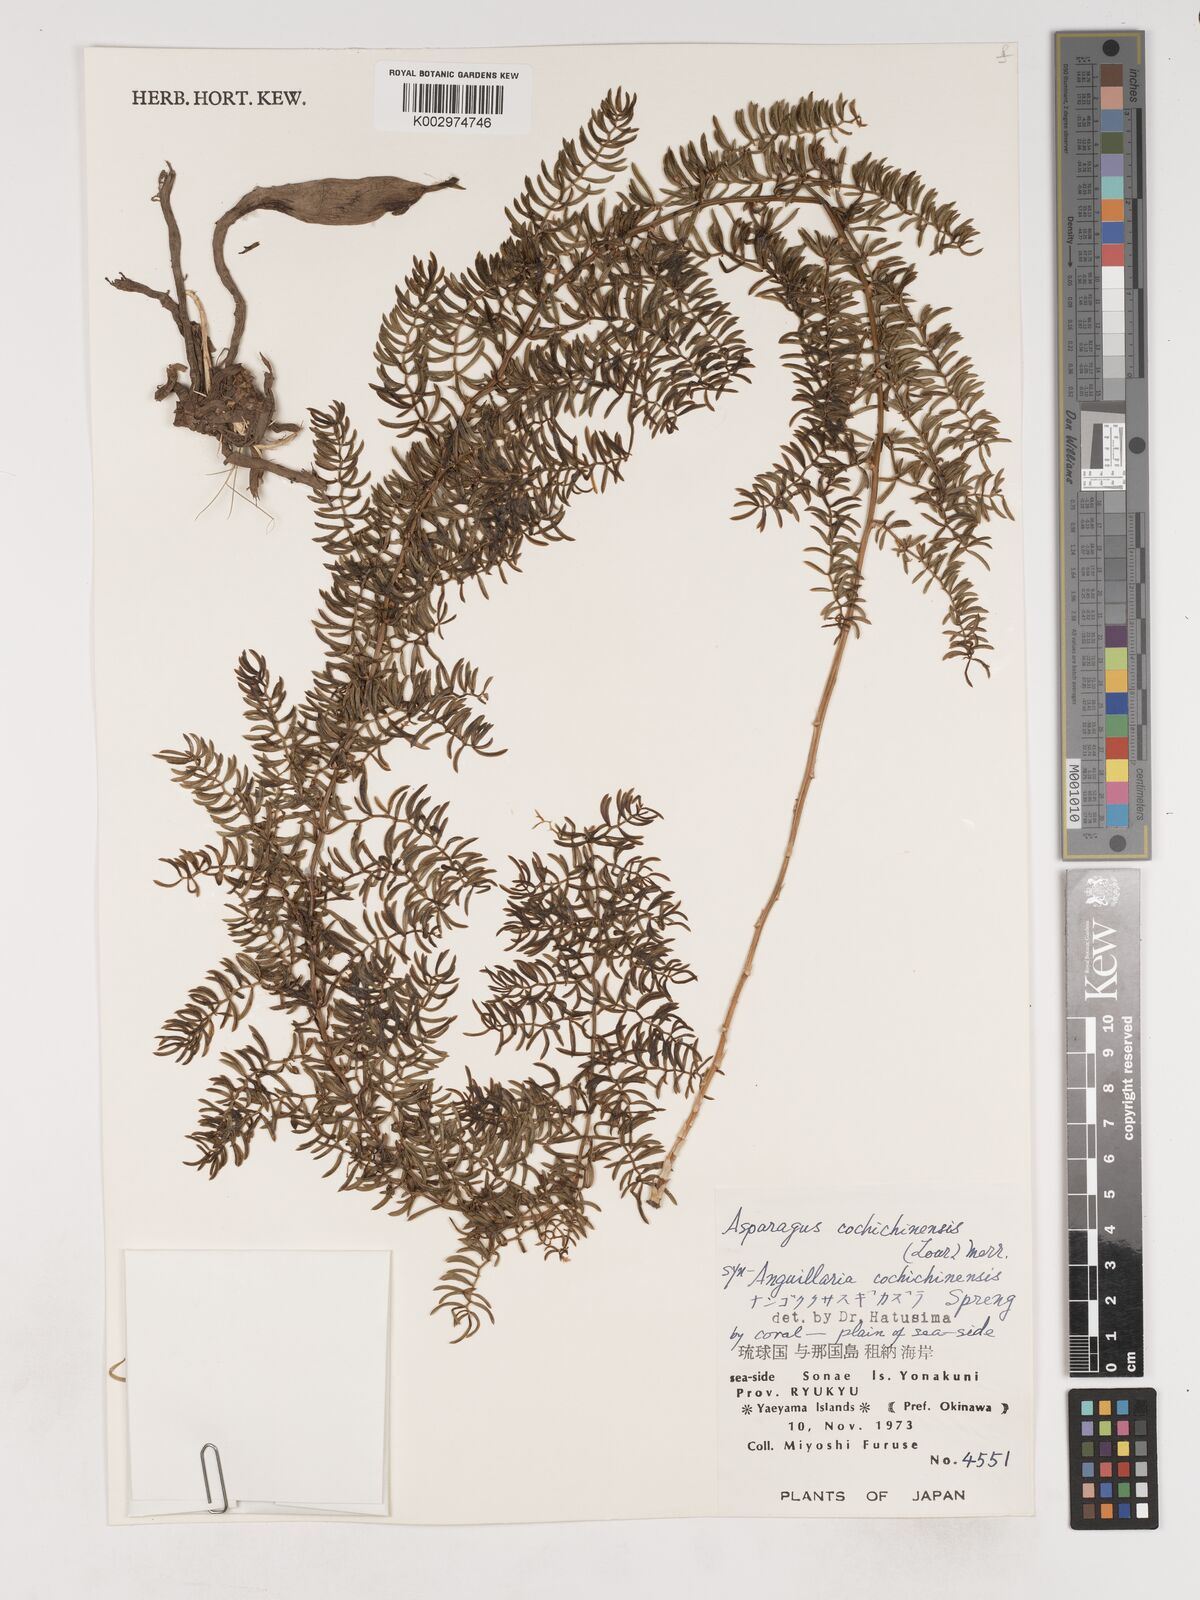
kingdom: Plantae
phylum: Tracheophyta
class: Liliopsida
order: Asparagales
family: Asparagaceae
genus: Asparagus
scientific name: Asparagus cochinchinensis
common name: Chinese asparagus
